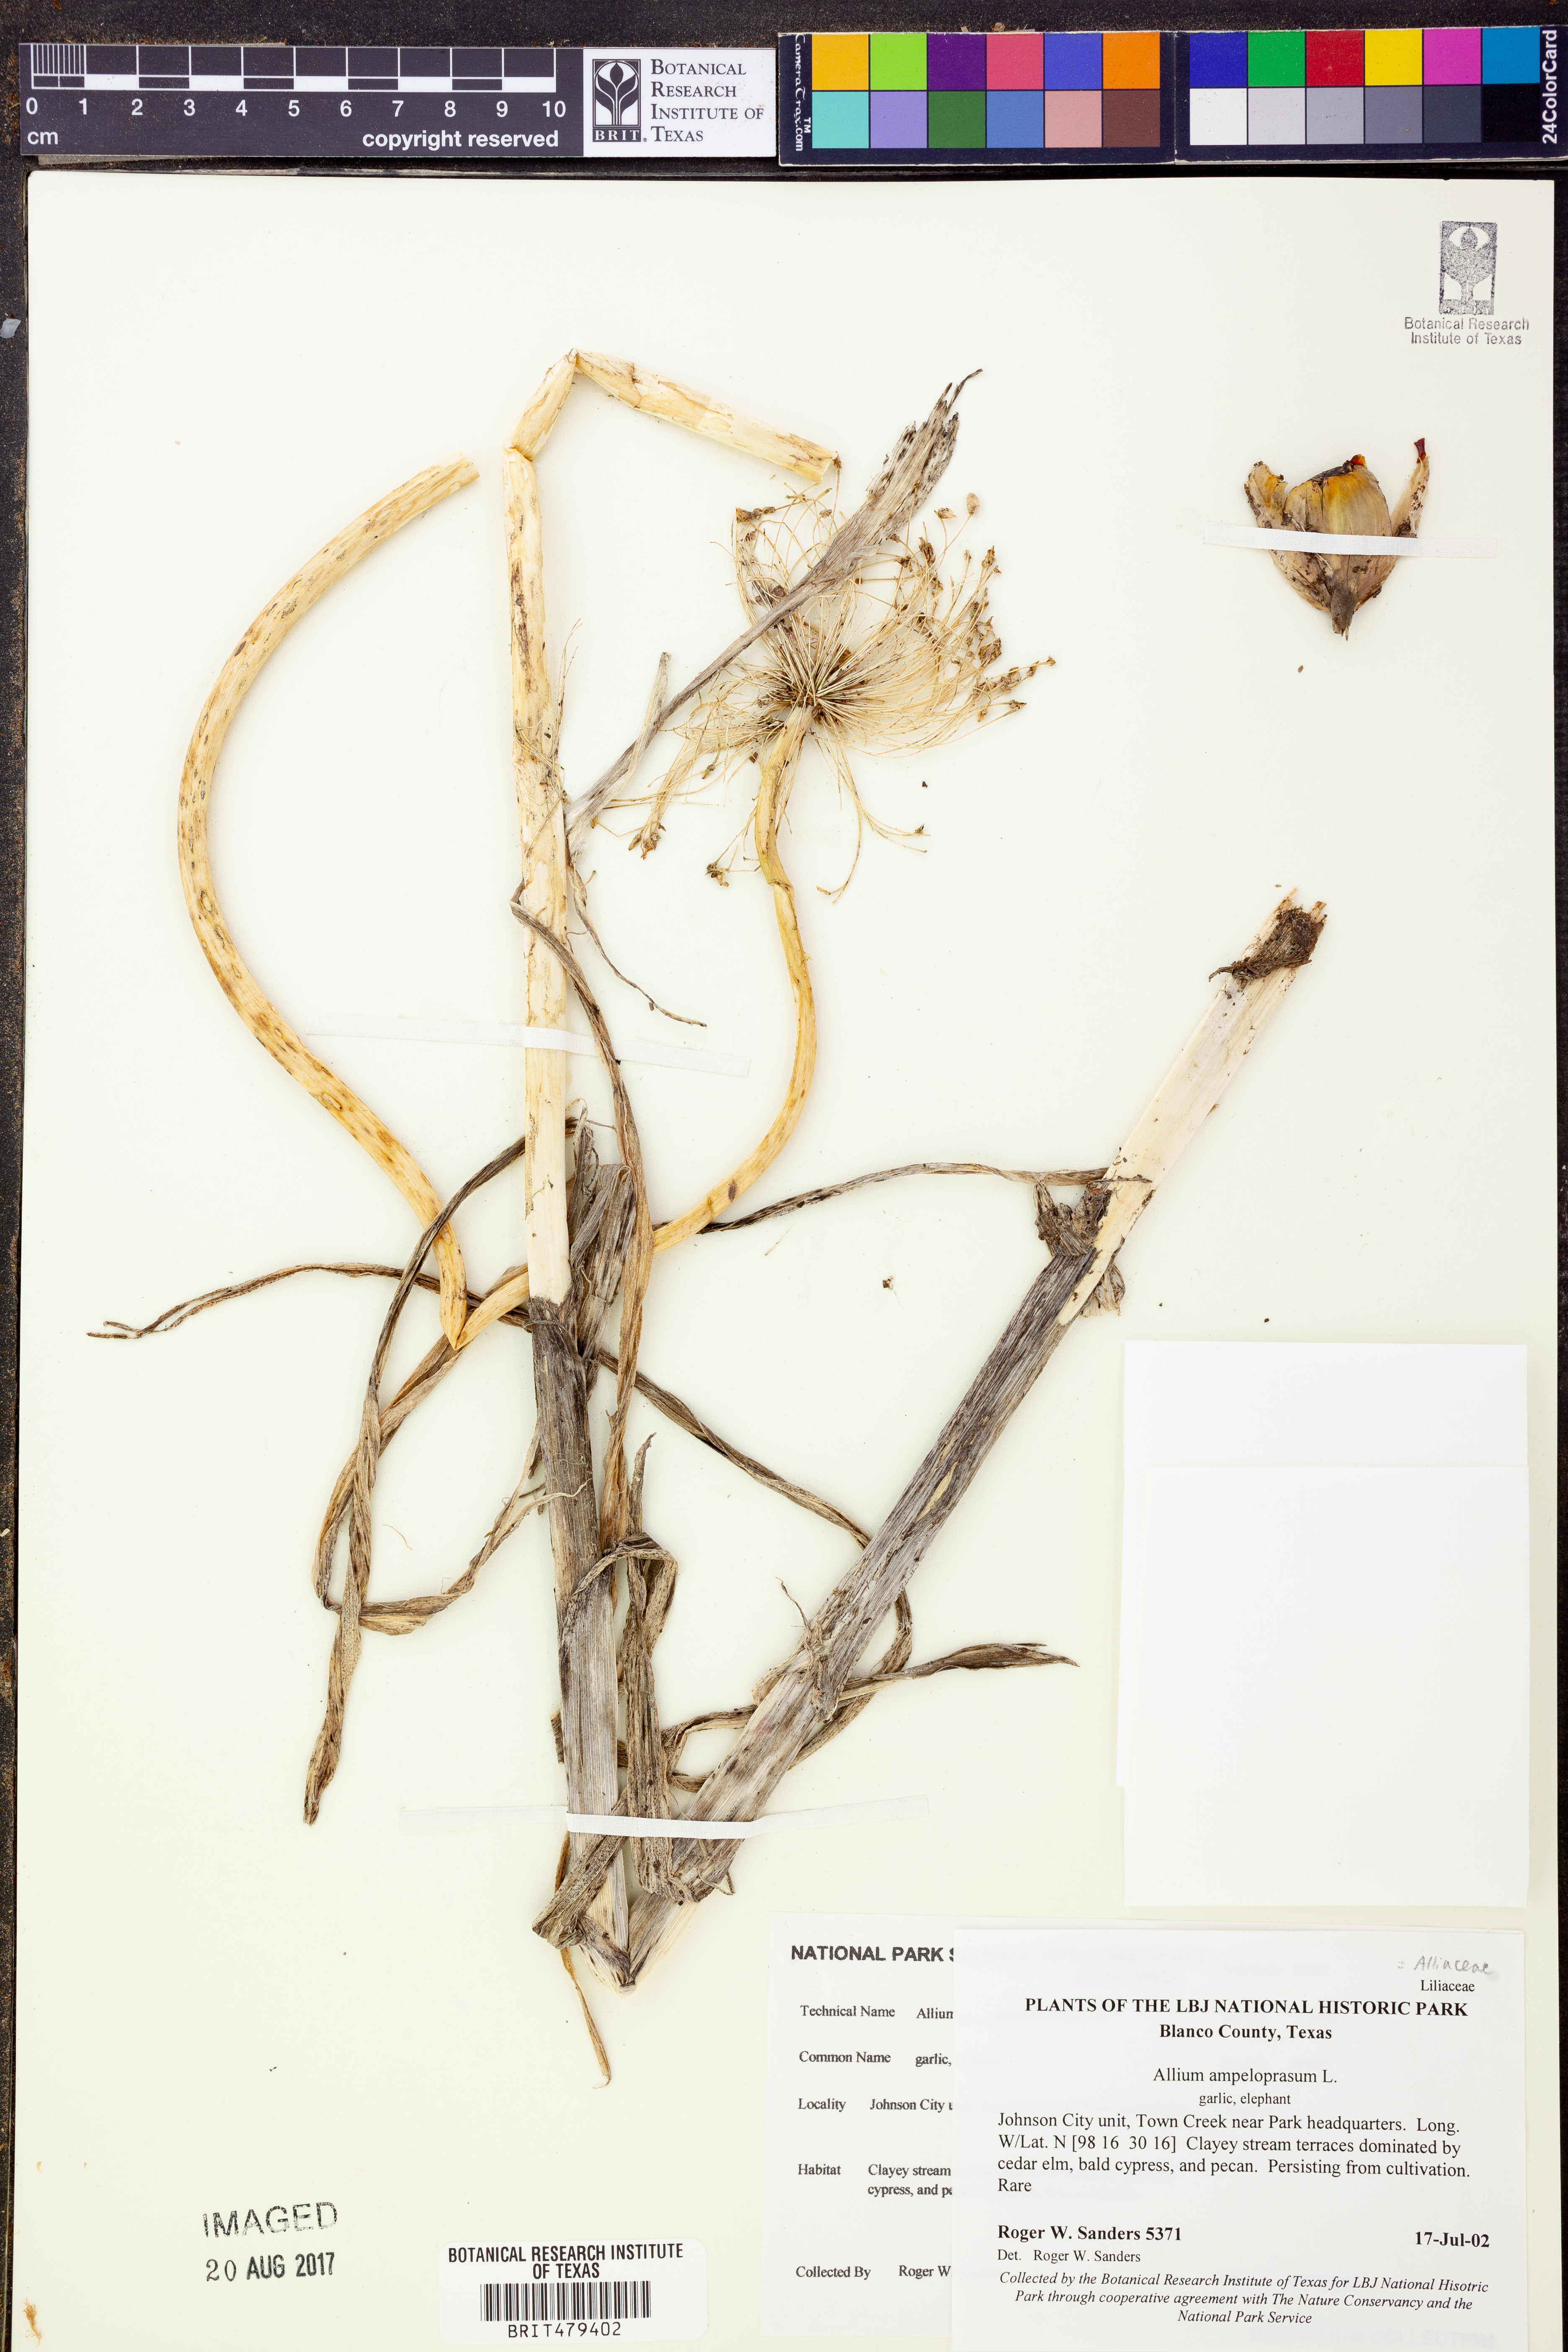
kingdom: Plantae
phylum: Tracheophyta
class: Liliopsida
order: Asparagales
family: Amaryllidaceae
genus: Allium
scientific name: Allium ampeloprasum
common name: Wild leek
